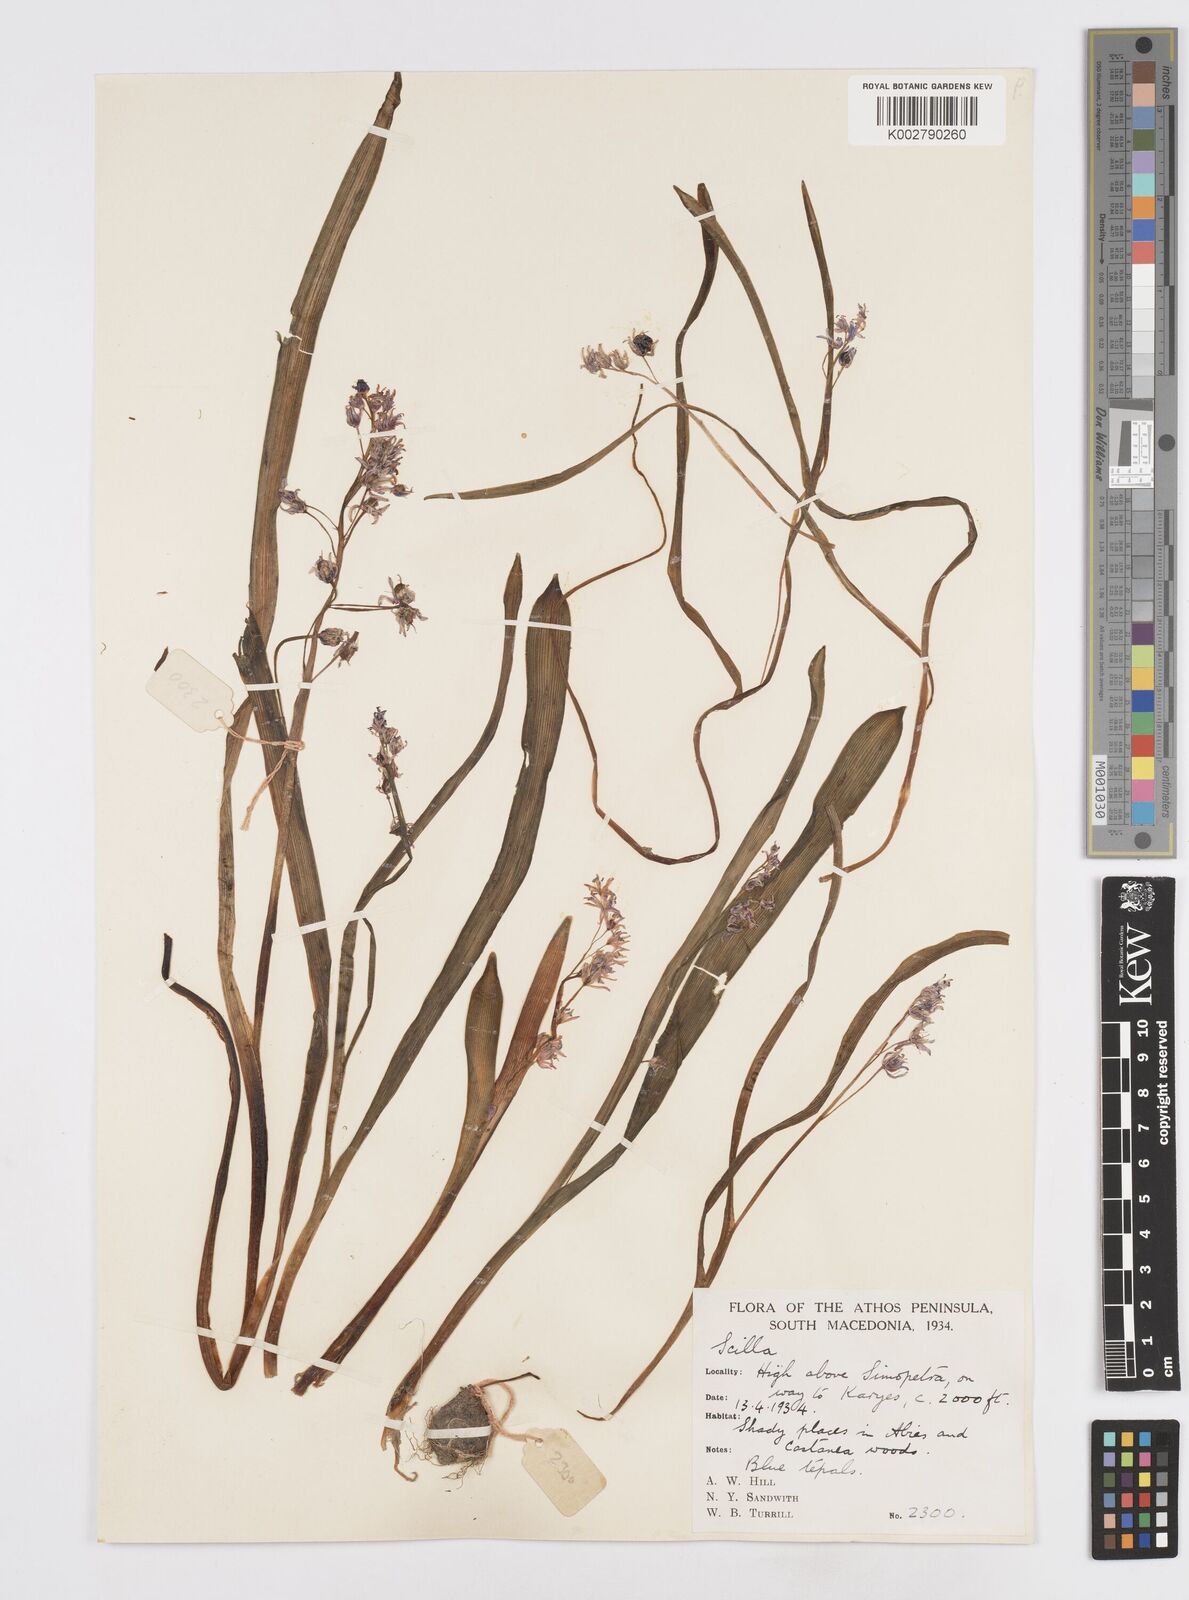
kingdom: Plantae
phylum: Tracheophyta
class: Liliopsida
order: Asparagales
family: Asparagaceae
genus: Scilla
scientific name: Scilla bifolia
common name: Alpine squill
